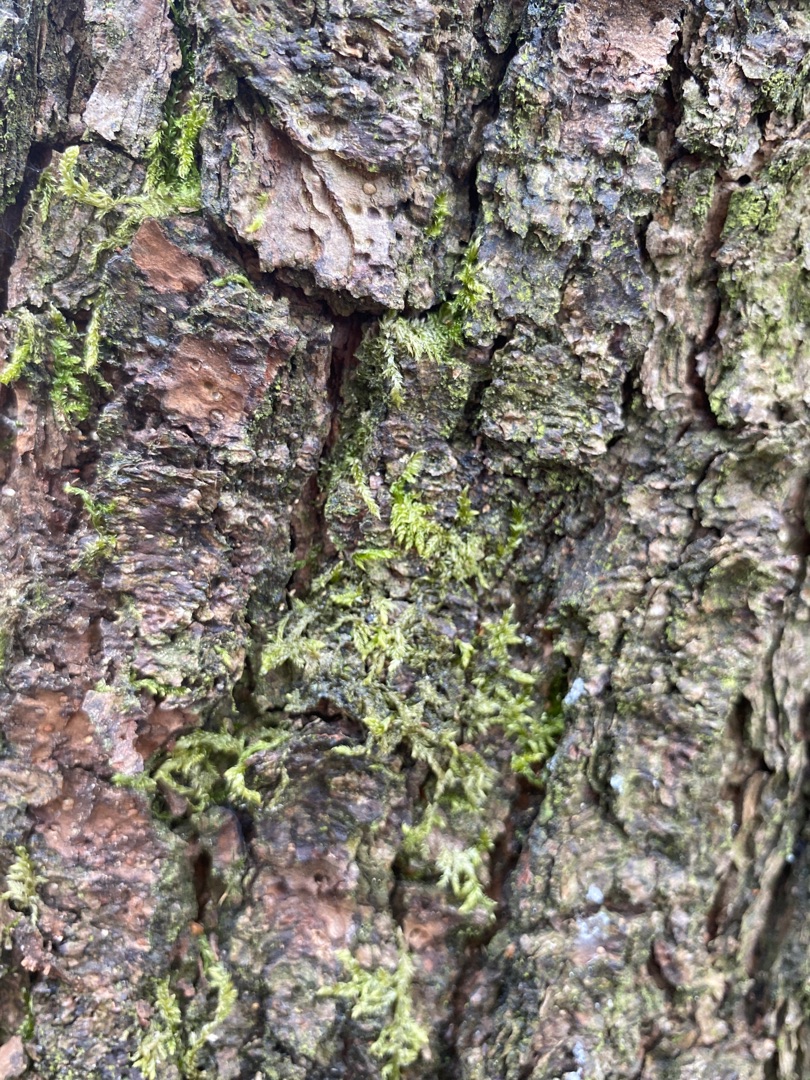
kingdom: Plantae
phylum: Bryophyta
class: Bryopsida
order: Hypnales
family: Hypnaceae
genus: Hypnum
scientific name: Hypnum
